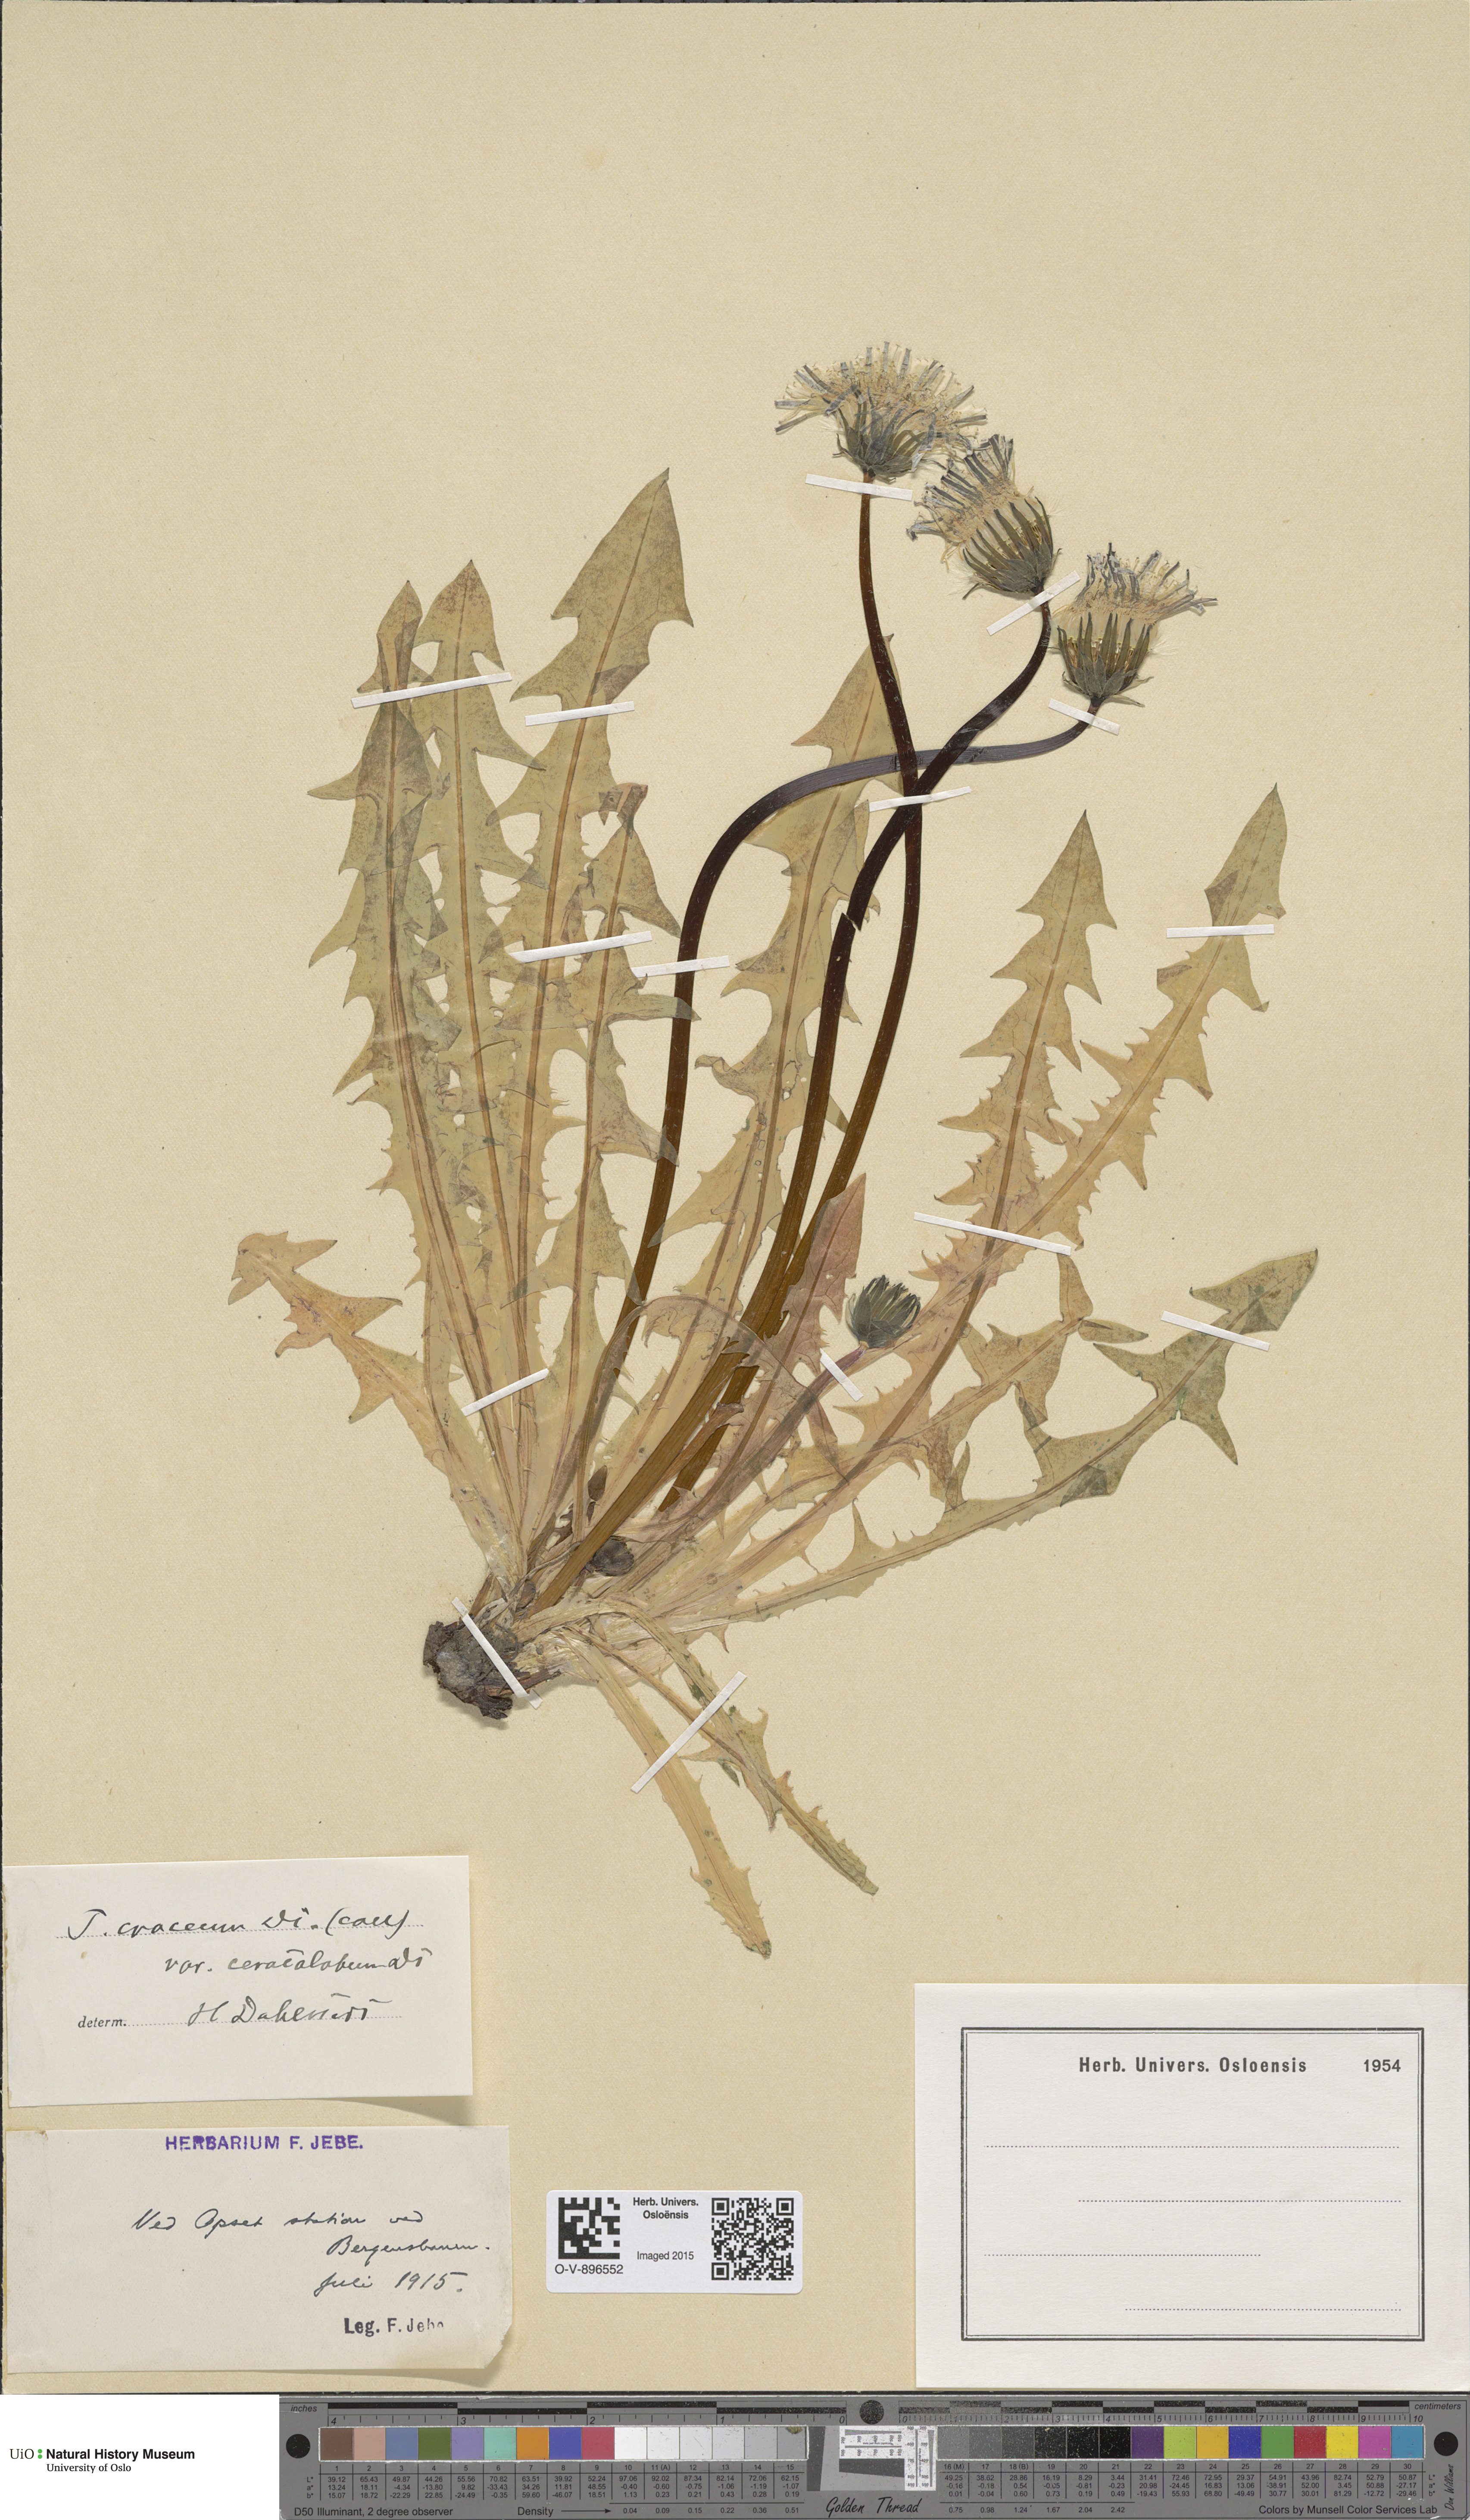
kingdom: Plantae
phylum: Tracheophyta
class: Magnoliopsida
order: Asterales
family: Asteraceae
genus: Taraxacum
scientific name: Taraxacum croceum
